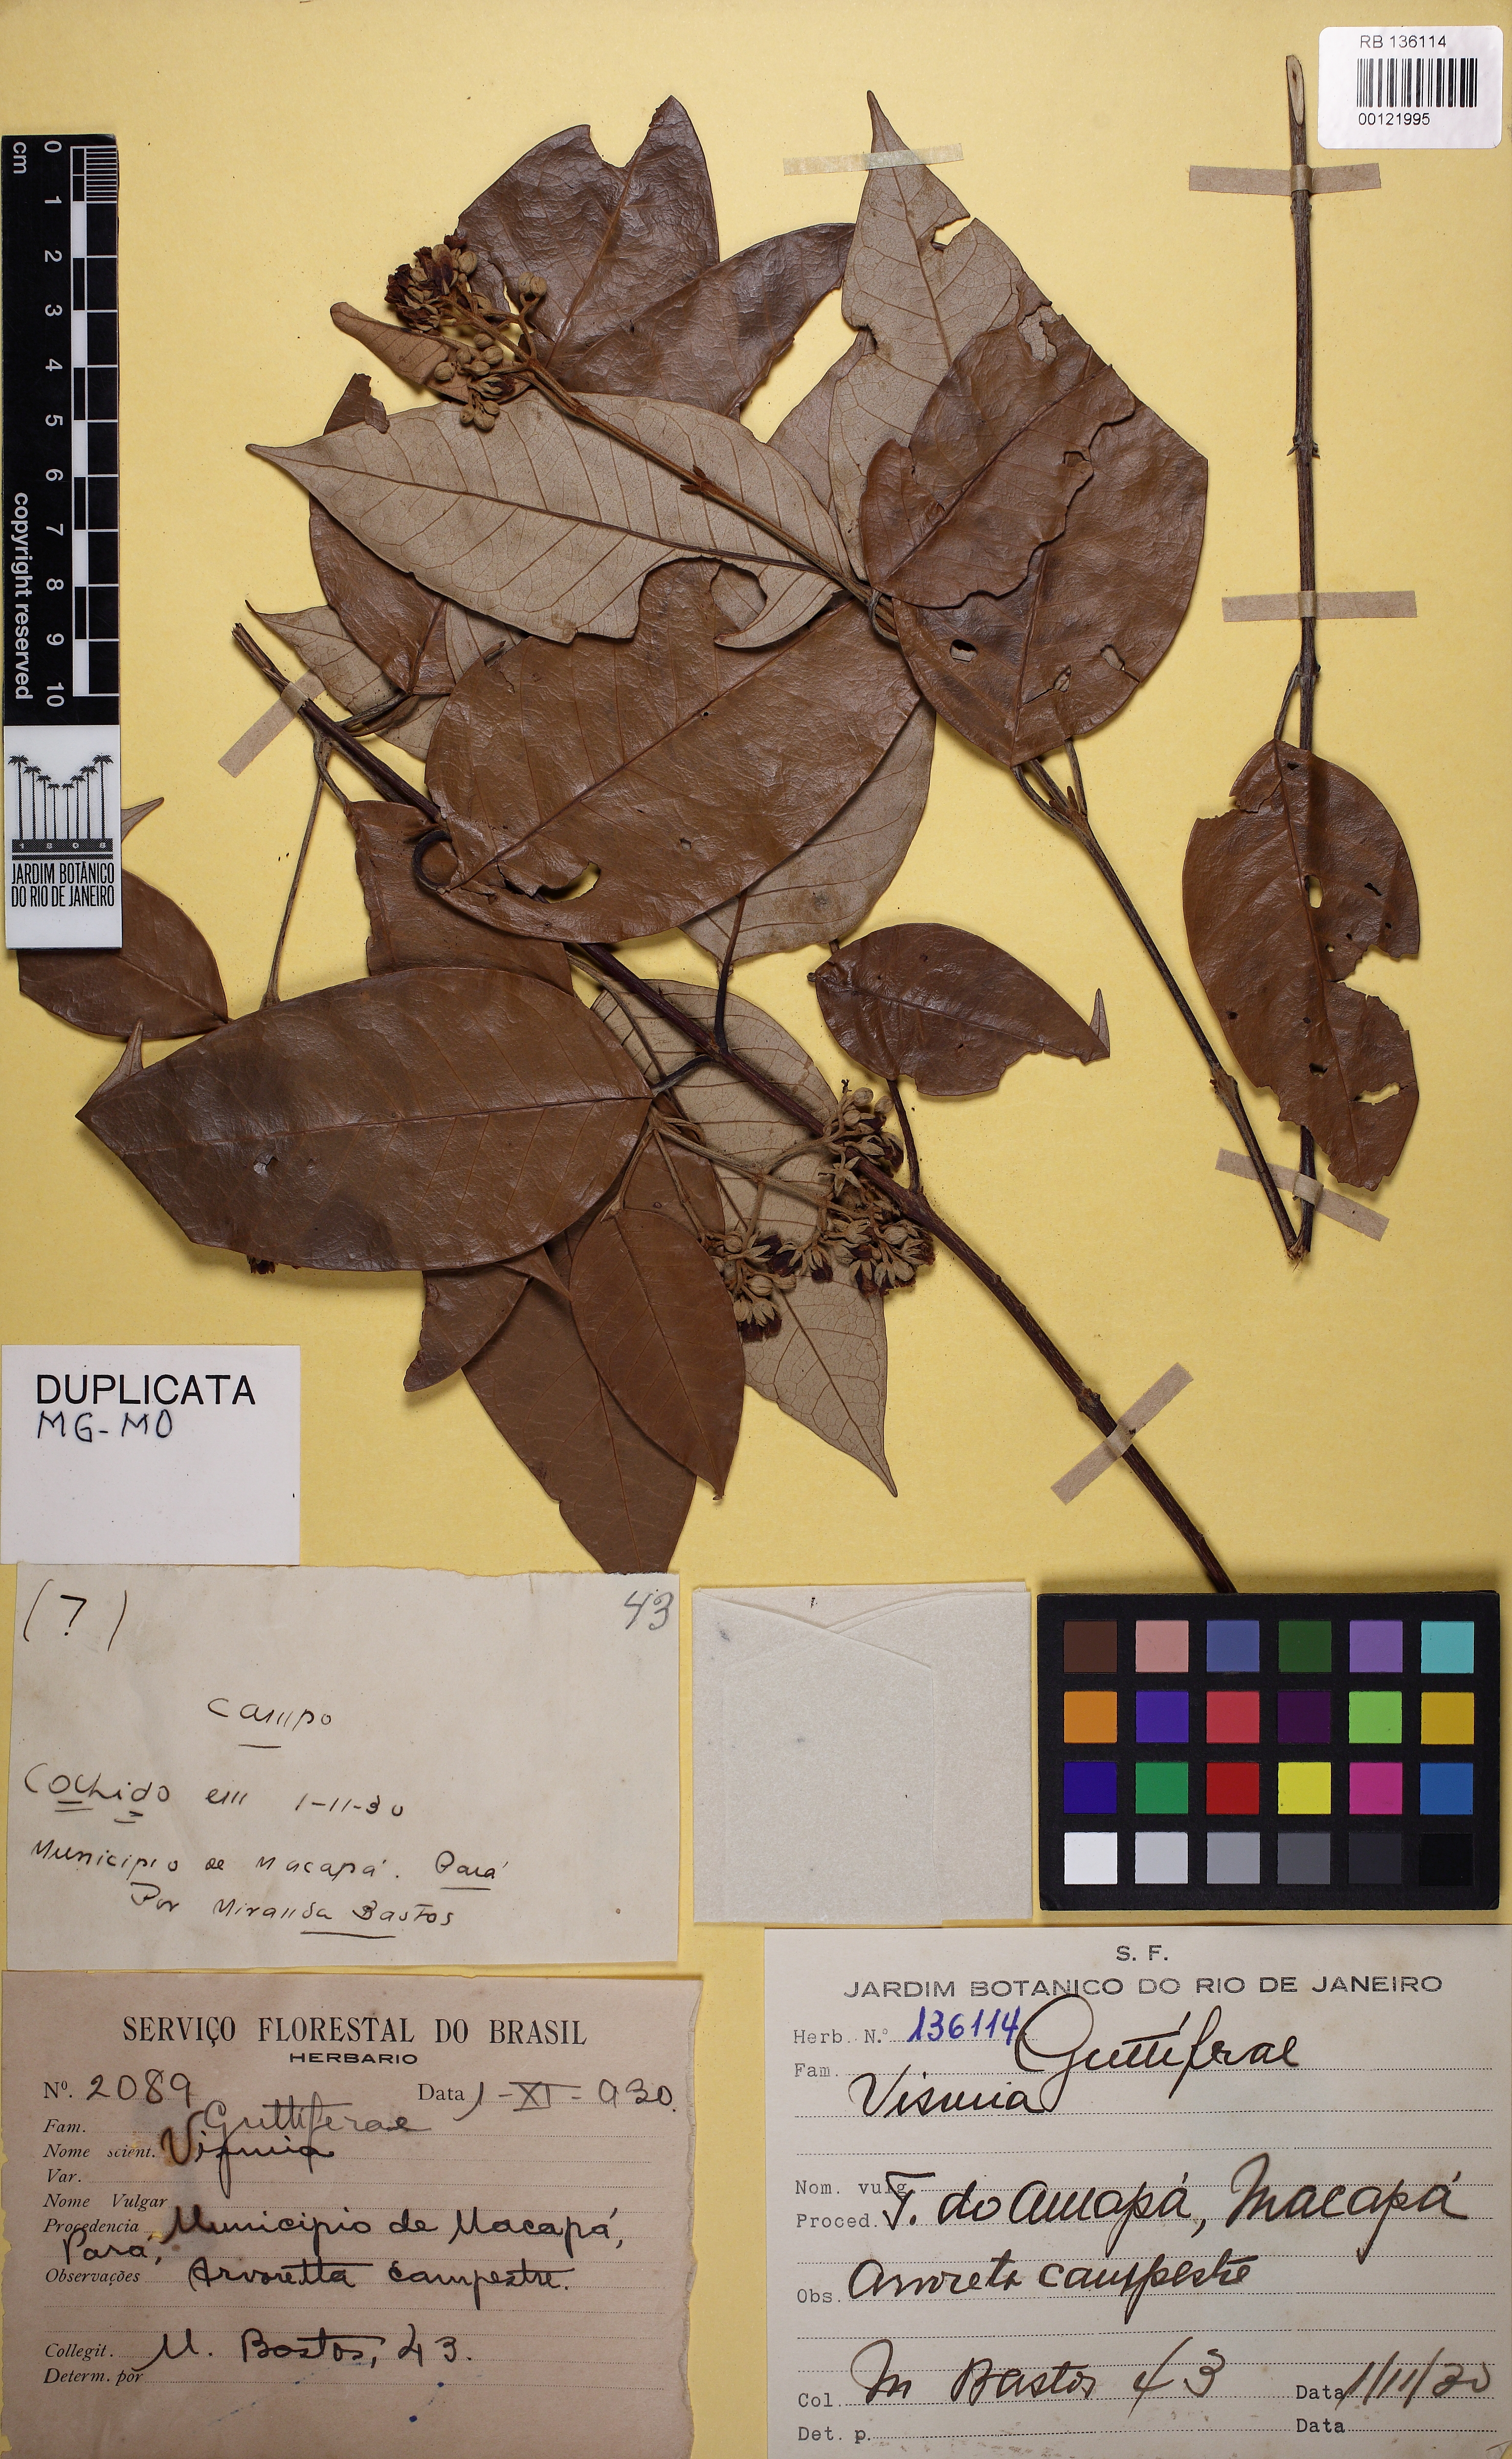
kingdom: Plantae
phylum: Tracheophyta
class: Magnoliopsida
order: Malpighiales
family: Hypericaceae
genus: Vismia
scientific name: Vismia gracilis
